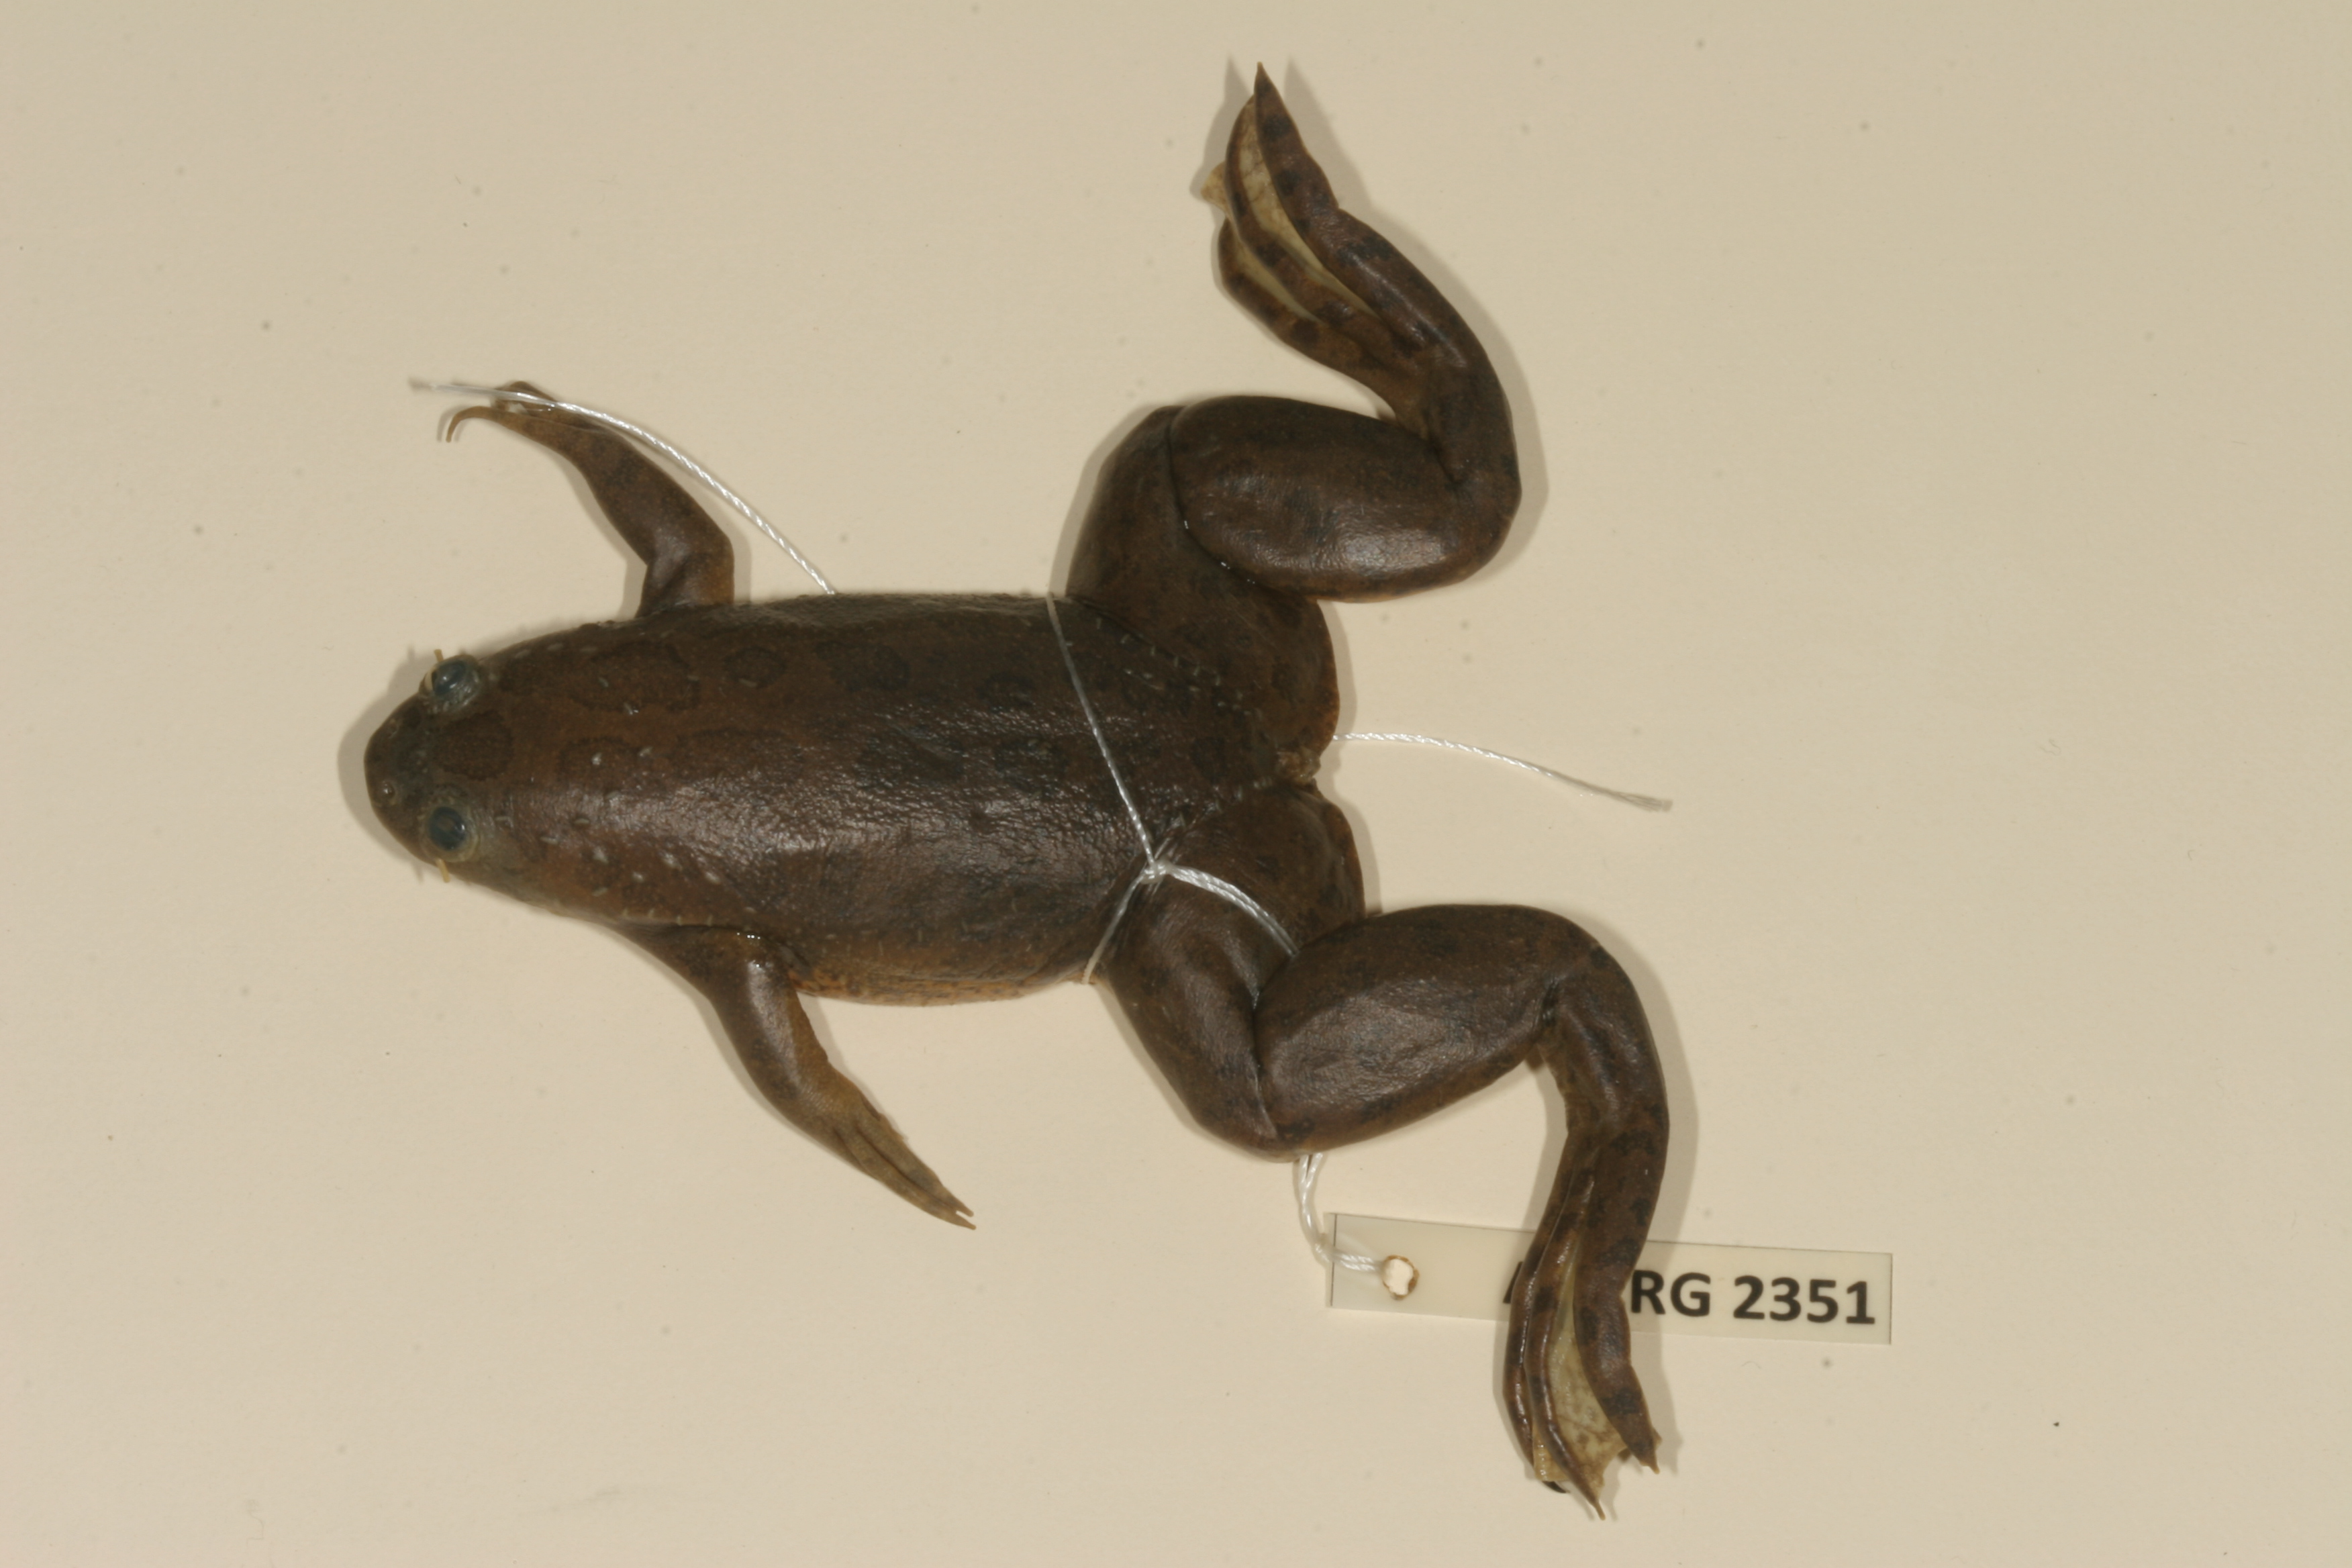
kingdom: Animalia
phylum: Chordata
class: Amphibia
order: Anura
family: Pipidae
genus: Xenopus
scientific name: Xenopus muelleri
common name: Muller's clawed frog
